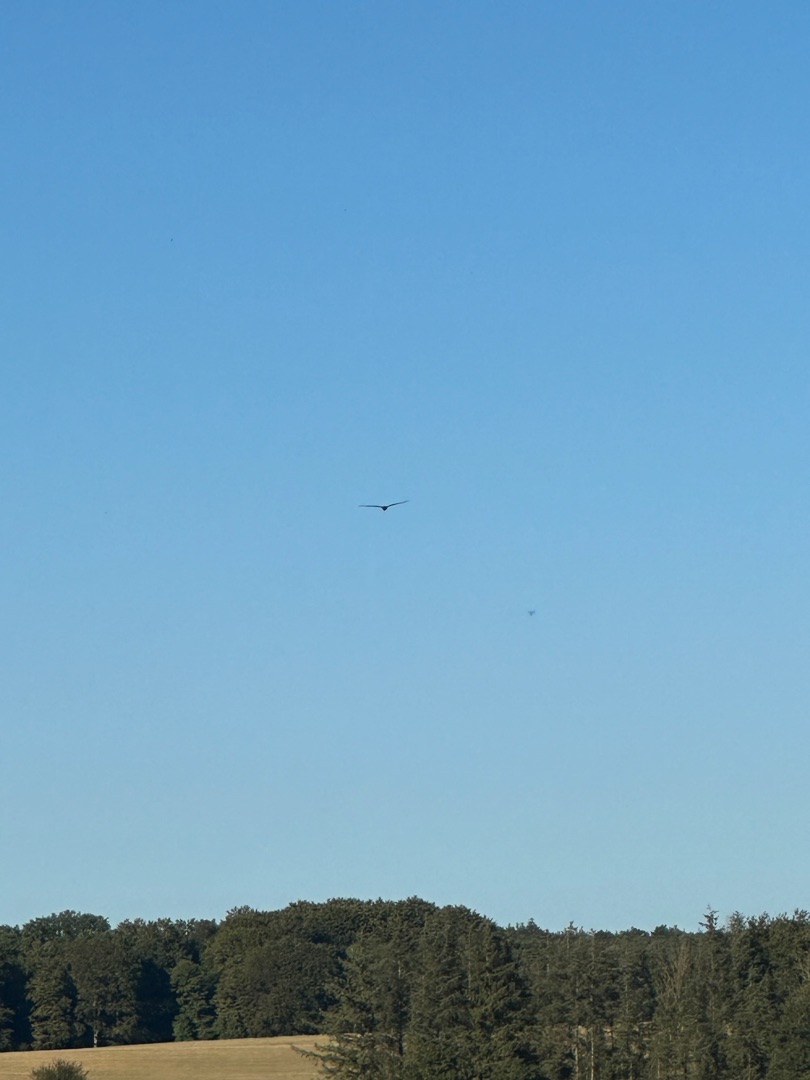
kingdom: Animalia
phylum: Chordata
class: Aves
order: Accipitriformes
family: Accipitridae
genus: Milvus
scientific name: Milvus milvus
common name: Rød glente
